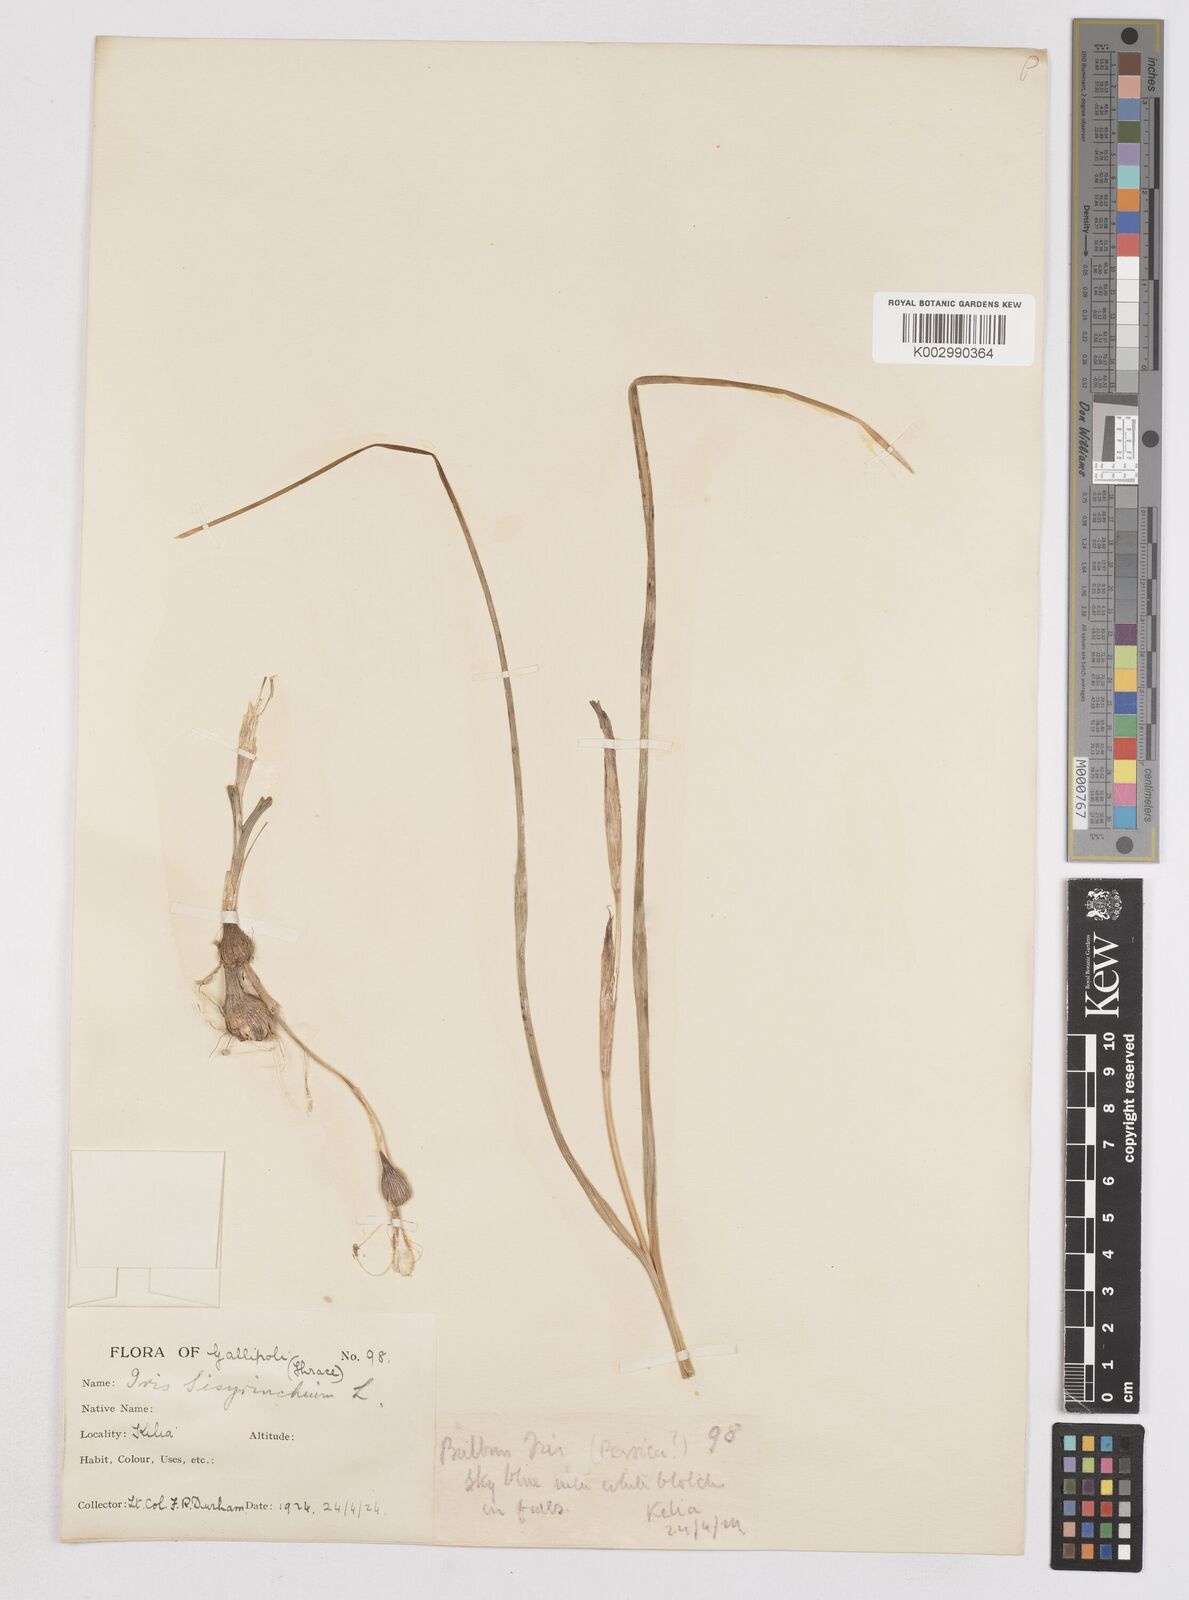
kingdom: Plantae
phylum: Tracheophyta
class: Liliopsida
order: Asparagales
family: Iridaceae
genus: Moraea
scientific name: Moraea sisyrinchium
